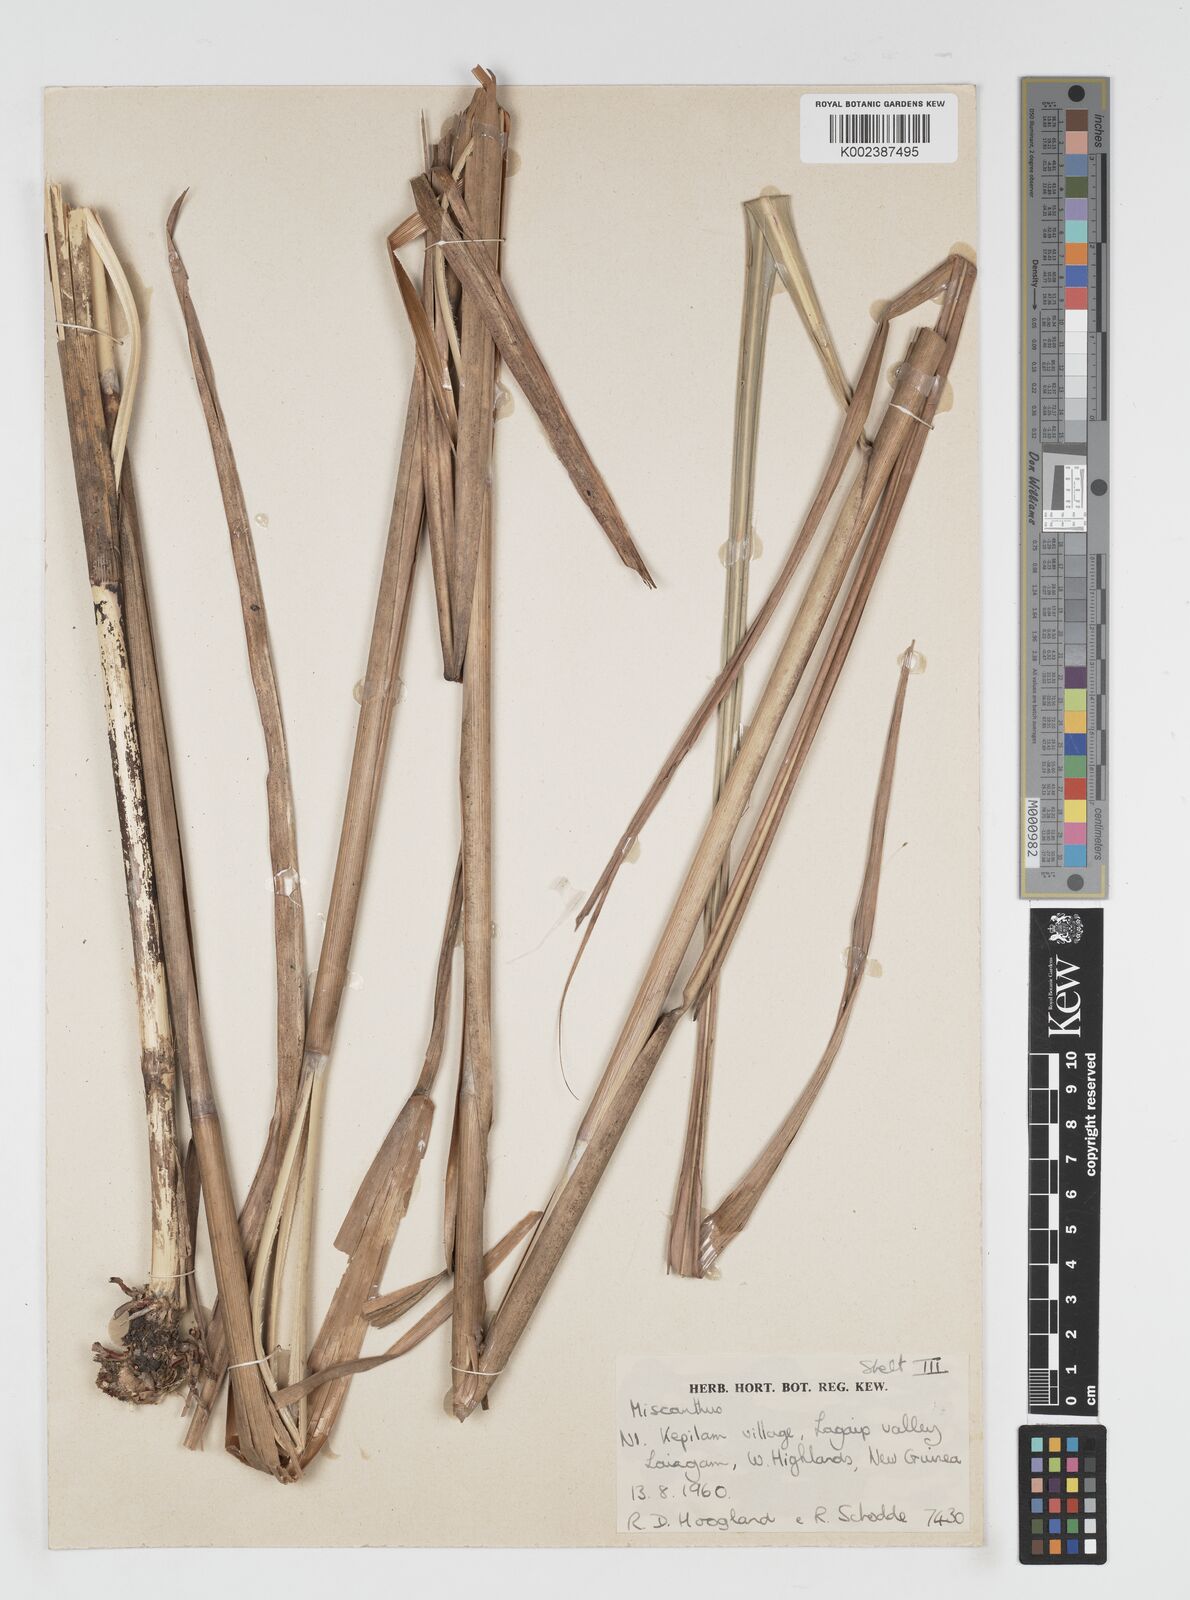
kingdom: Plantae
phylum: Tracheophyta
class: Liliopsida
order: Poales
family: Poaceae
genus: Miscanthus
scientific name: Miscanthus floridulus
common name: Pacific island silvergrass
